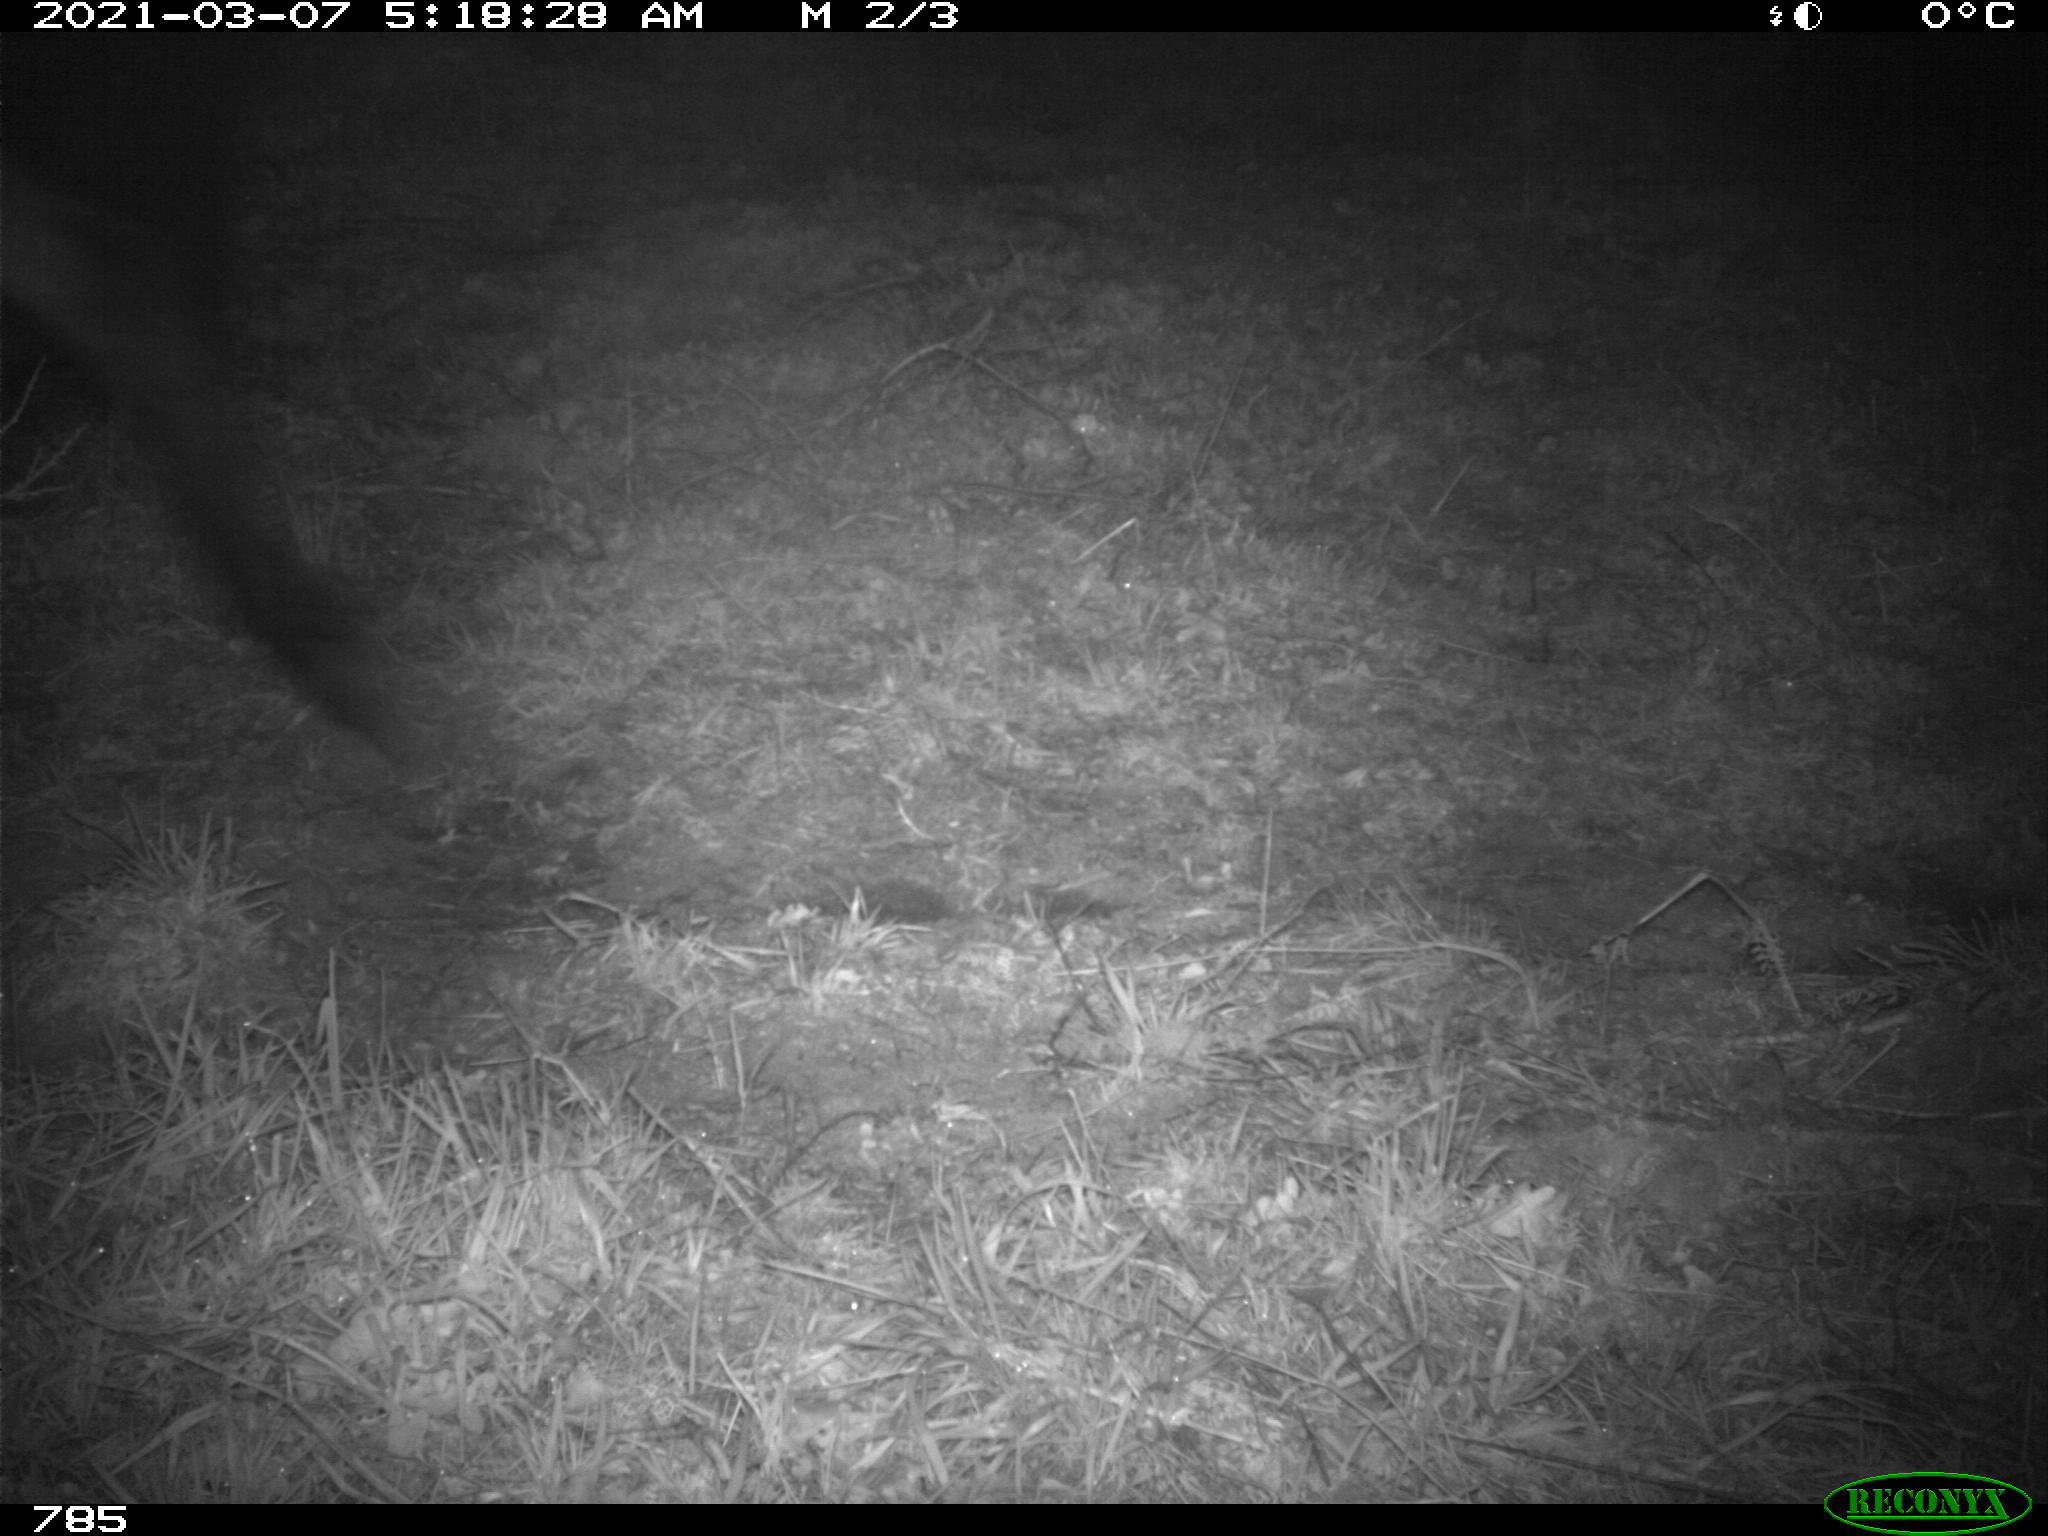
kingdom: Animalia
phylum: Chordata
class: Mammalia
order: Perissodactyla
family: Equidae
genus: Equus
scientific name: Equus caballus
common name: Horse
